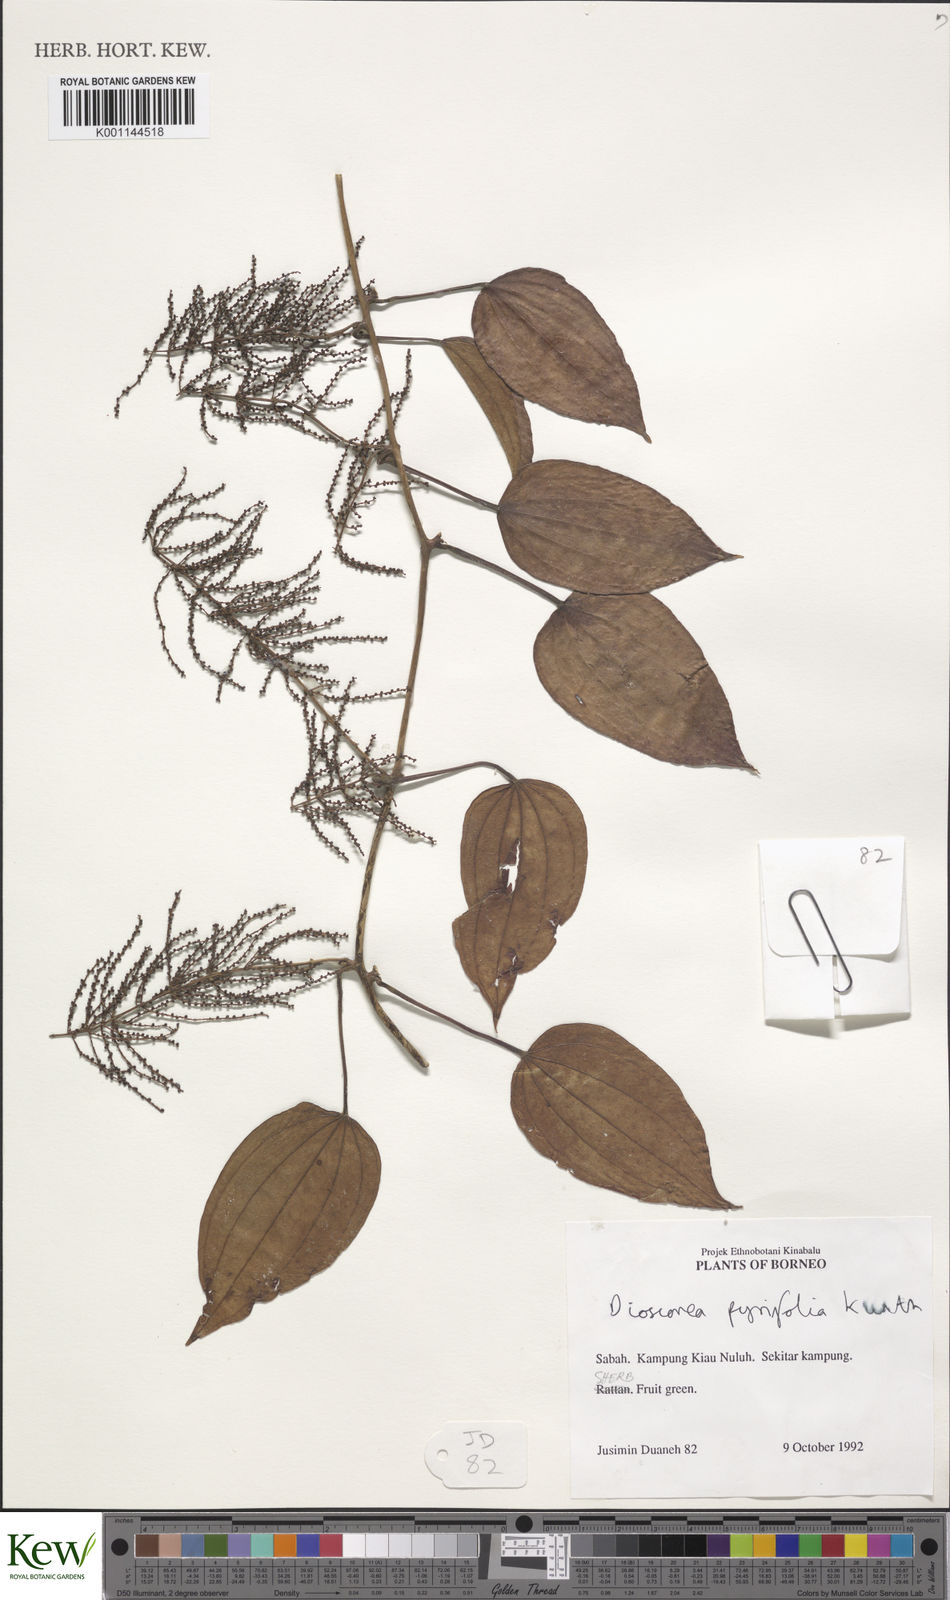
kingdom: Plantae
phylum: Tracheophyta
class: Liliopsida
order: Dioscoreales
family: Dioscoreaceae
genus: Dioscorea
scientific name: Dioscorea pyrifolia
